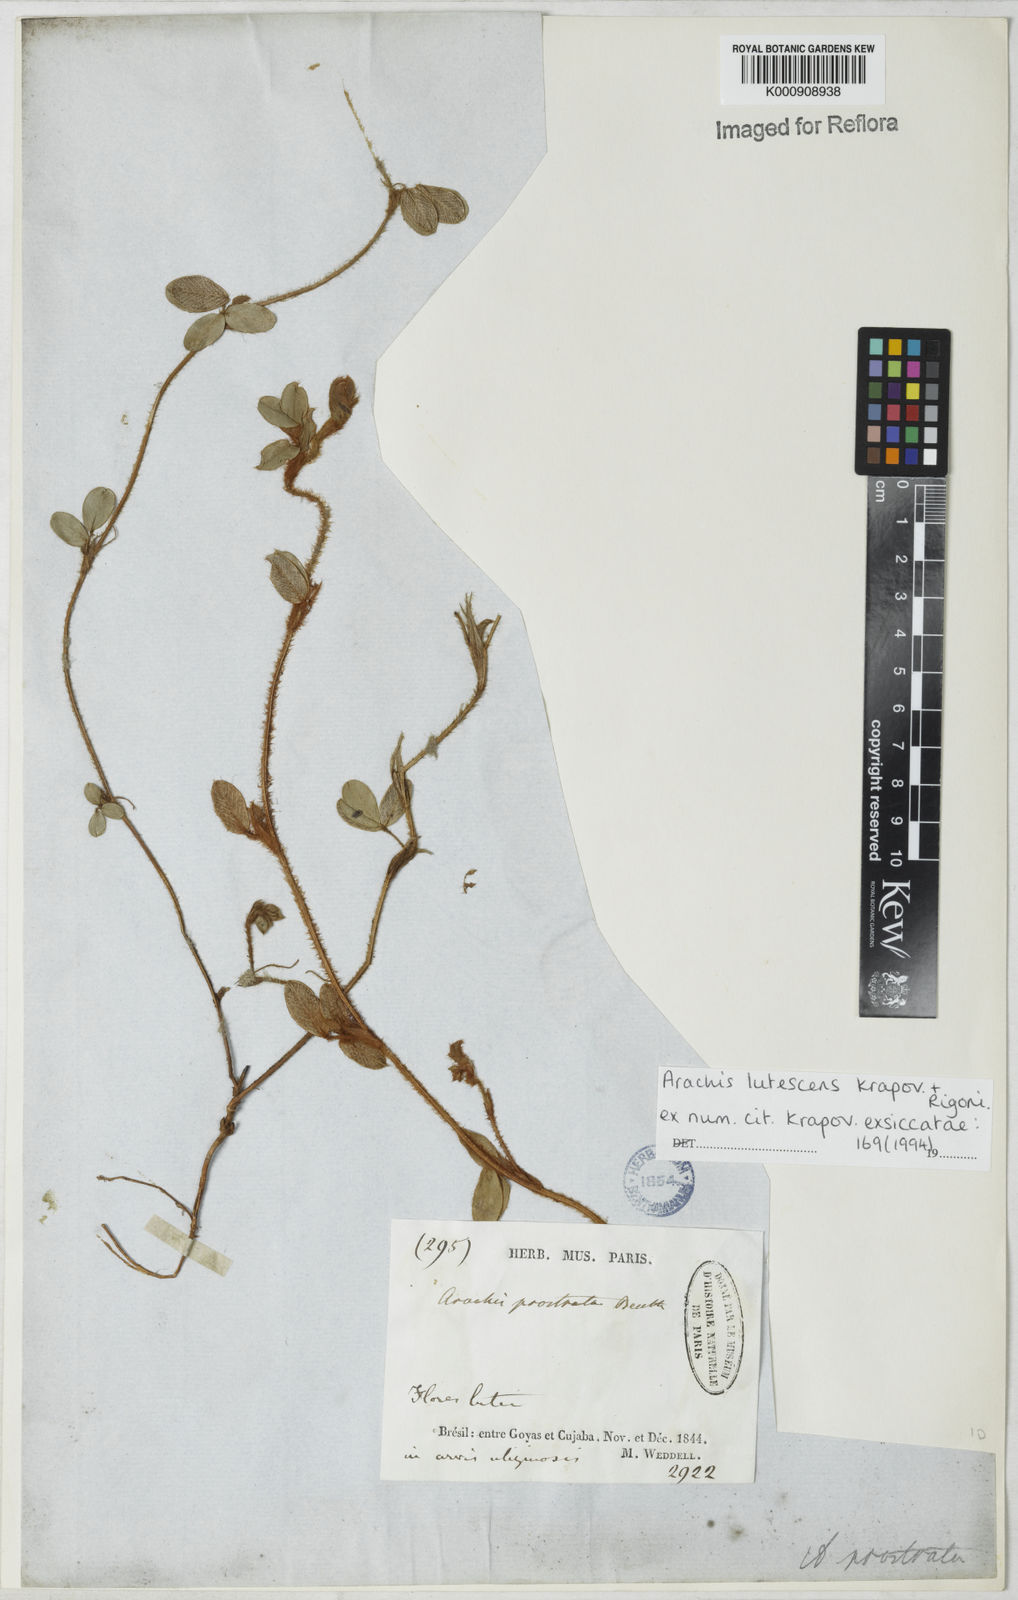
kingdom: Plantae
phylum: Tracheophyta
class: Magnoliopsida
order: Fabales
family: Fabaceae
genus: Arachis
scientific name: Arachis lutescens
